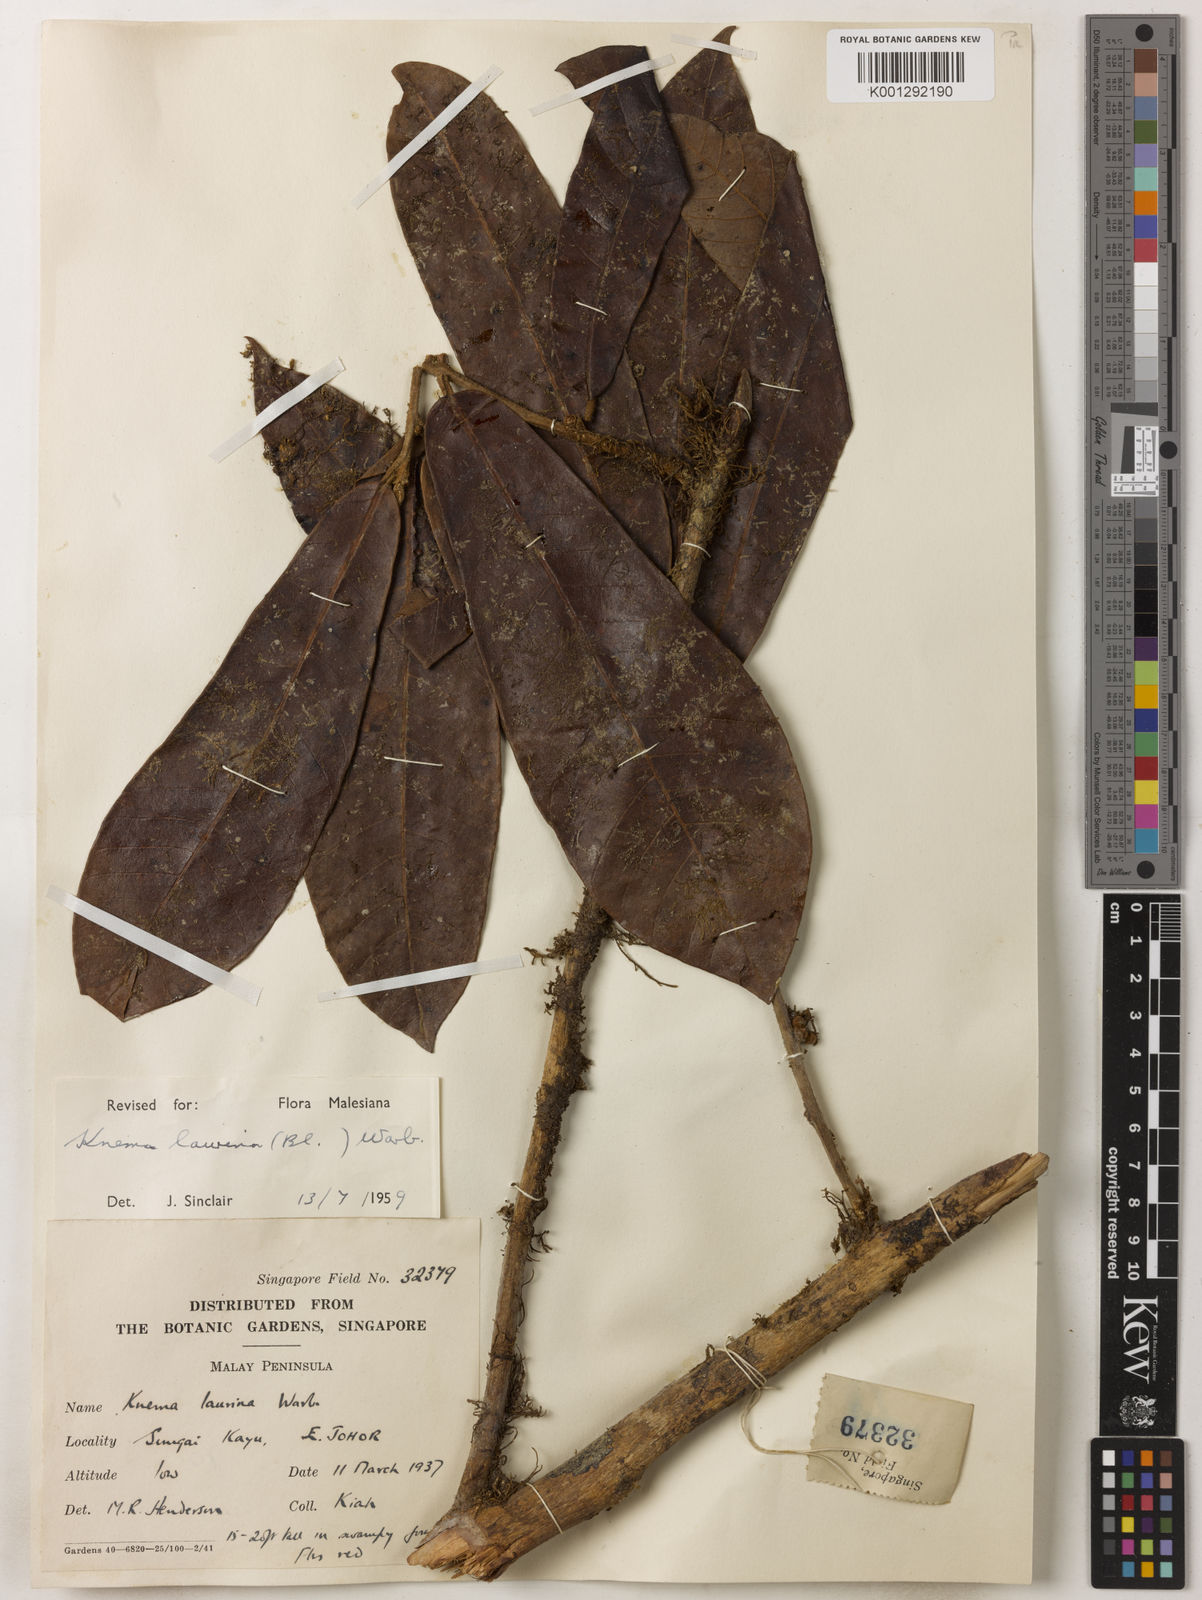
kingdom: Plantae
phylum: Tracheophyta
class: Magnoliopsida
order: Magnoliales
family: Myristicaceae
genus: Knema
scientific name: Knema laurina
